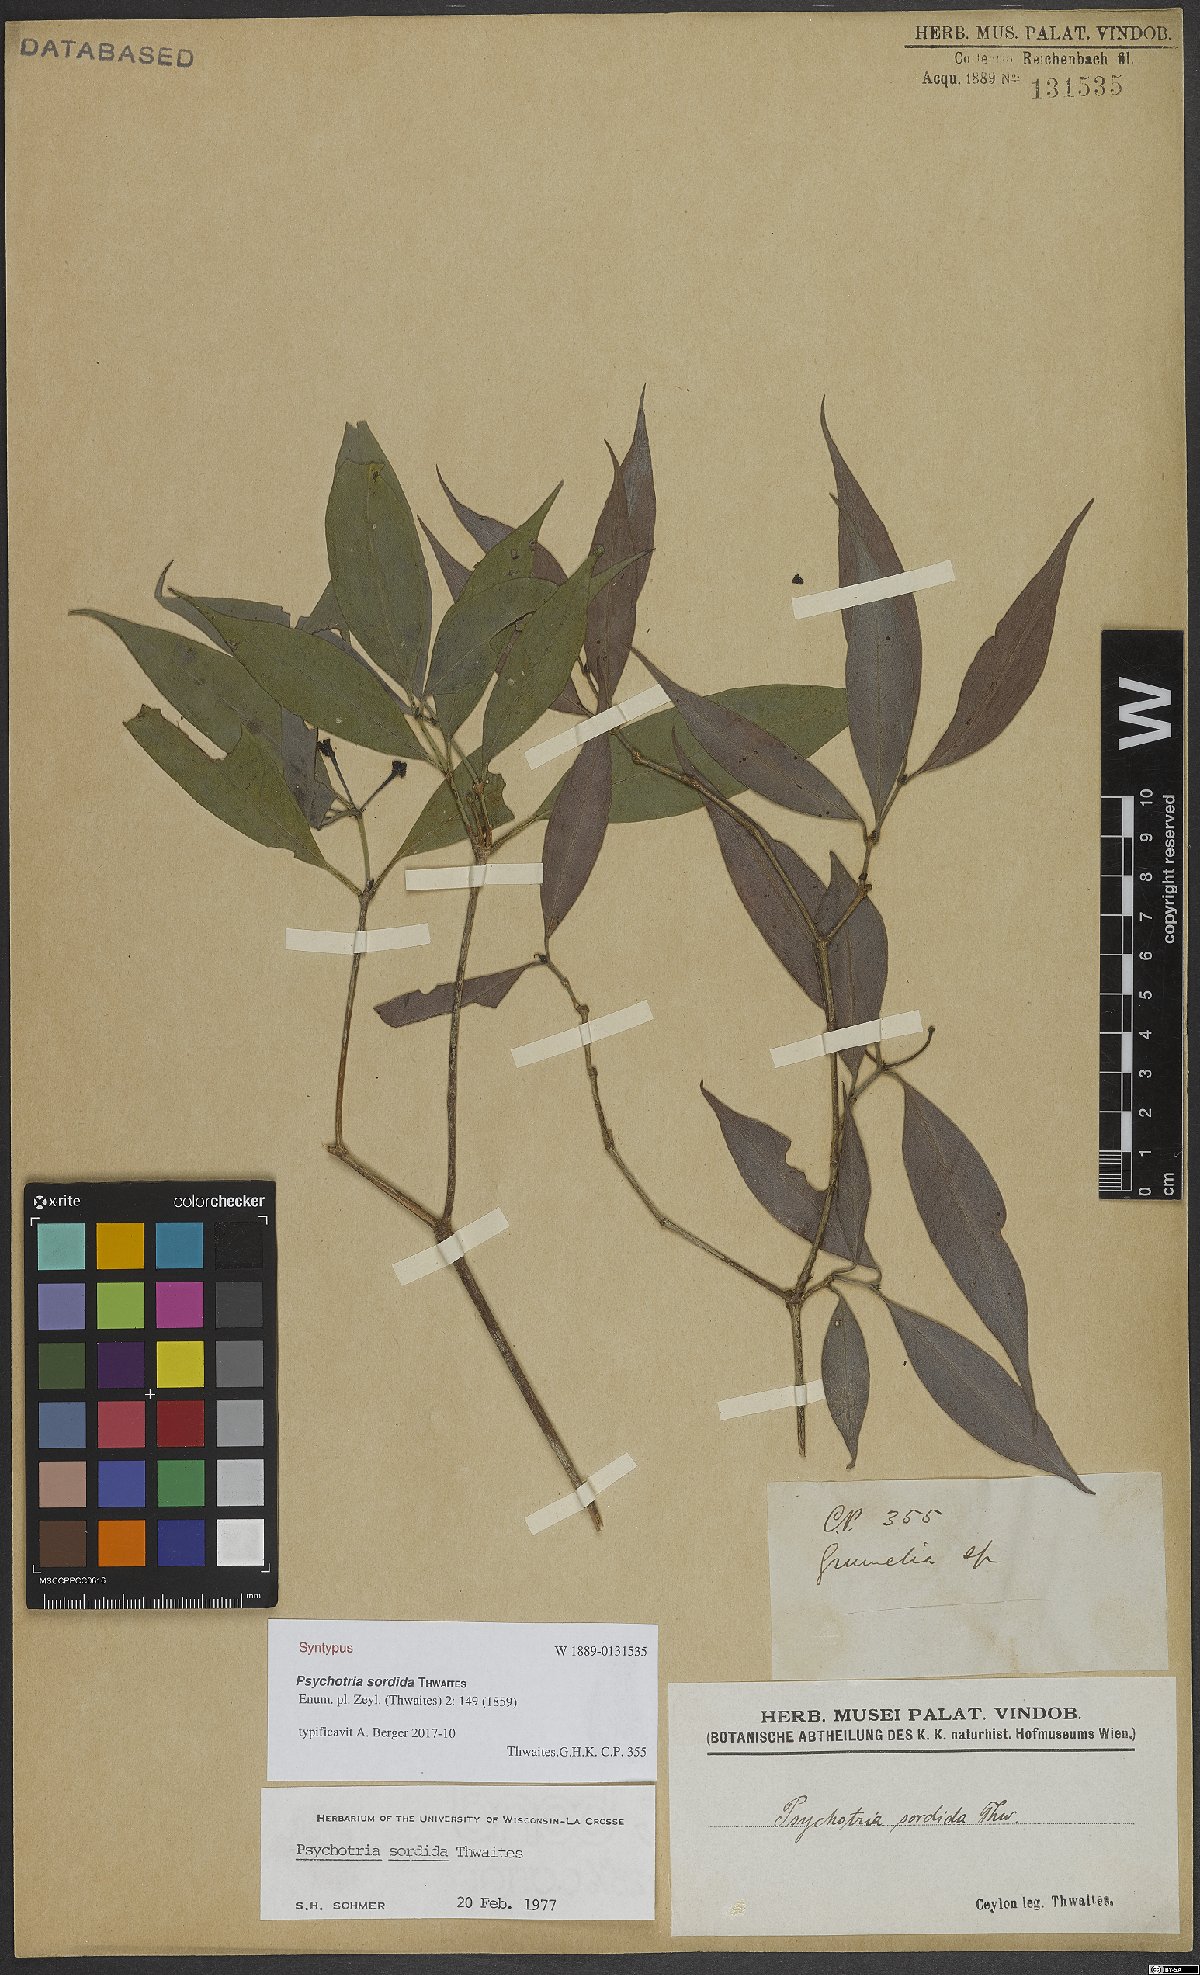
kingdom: Plantae
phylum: Tracheophyta
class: Magnoliopsida
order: Gentianales
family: Rubiaceae
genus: Psychotria
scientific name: Psychotria sordida
